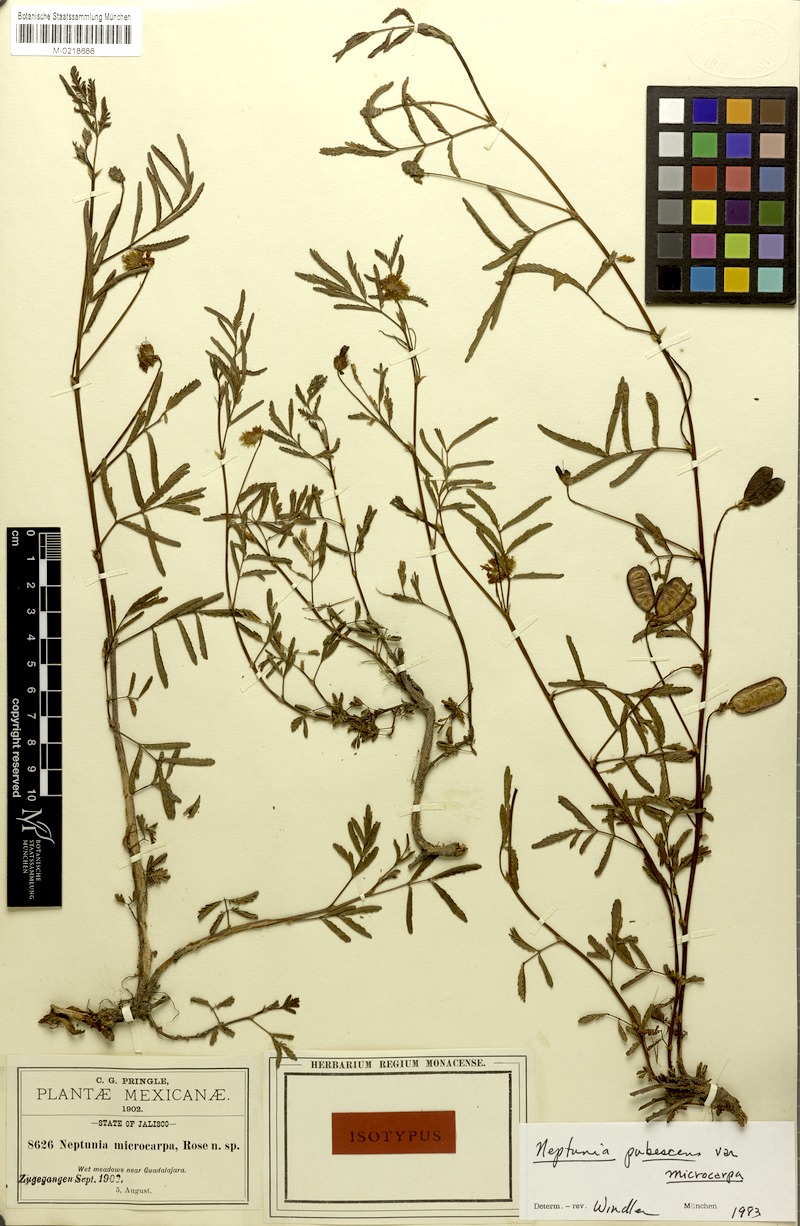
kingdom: Plantae
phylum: Tracheophyta
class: Magnoliopsida
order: Fabales
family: Fabaceae
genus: Neptunia
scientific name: Neptunia pubescens
